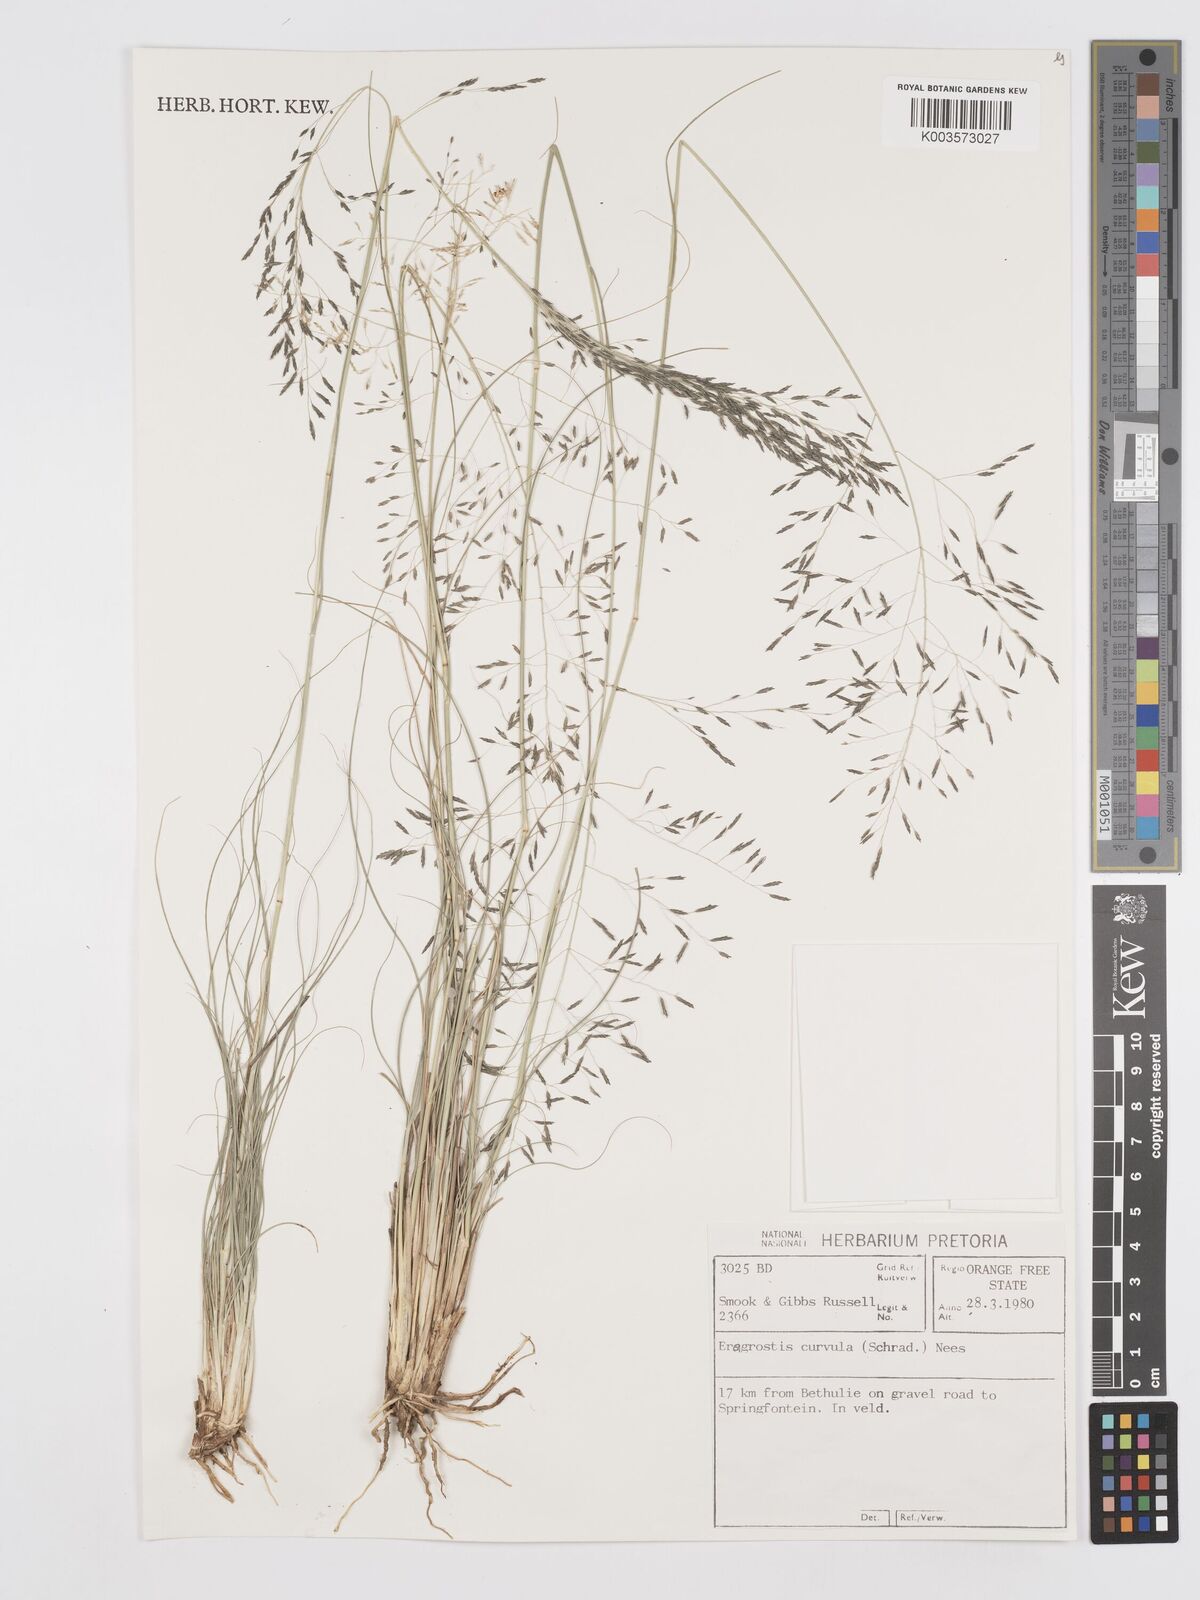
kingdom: Plantae
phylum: Tracheophyta
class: Liliopsida
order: Poales
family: Poaceae
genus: Eragrostis
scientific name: Eragrostis curvula
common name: African love-grass
